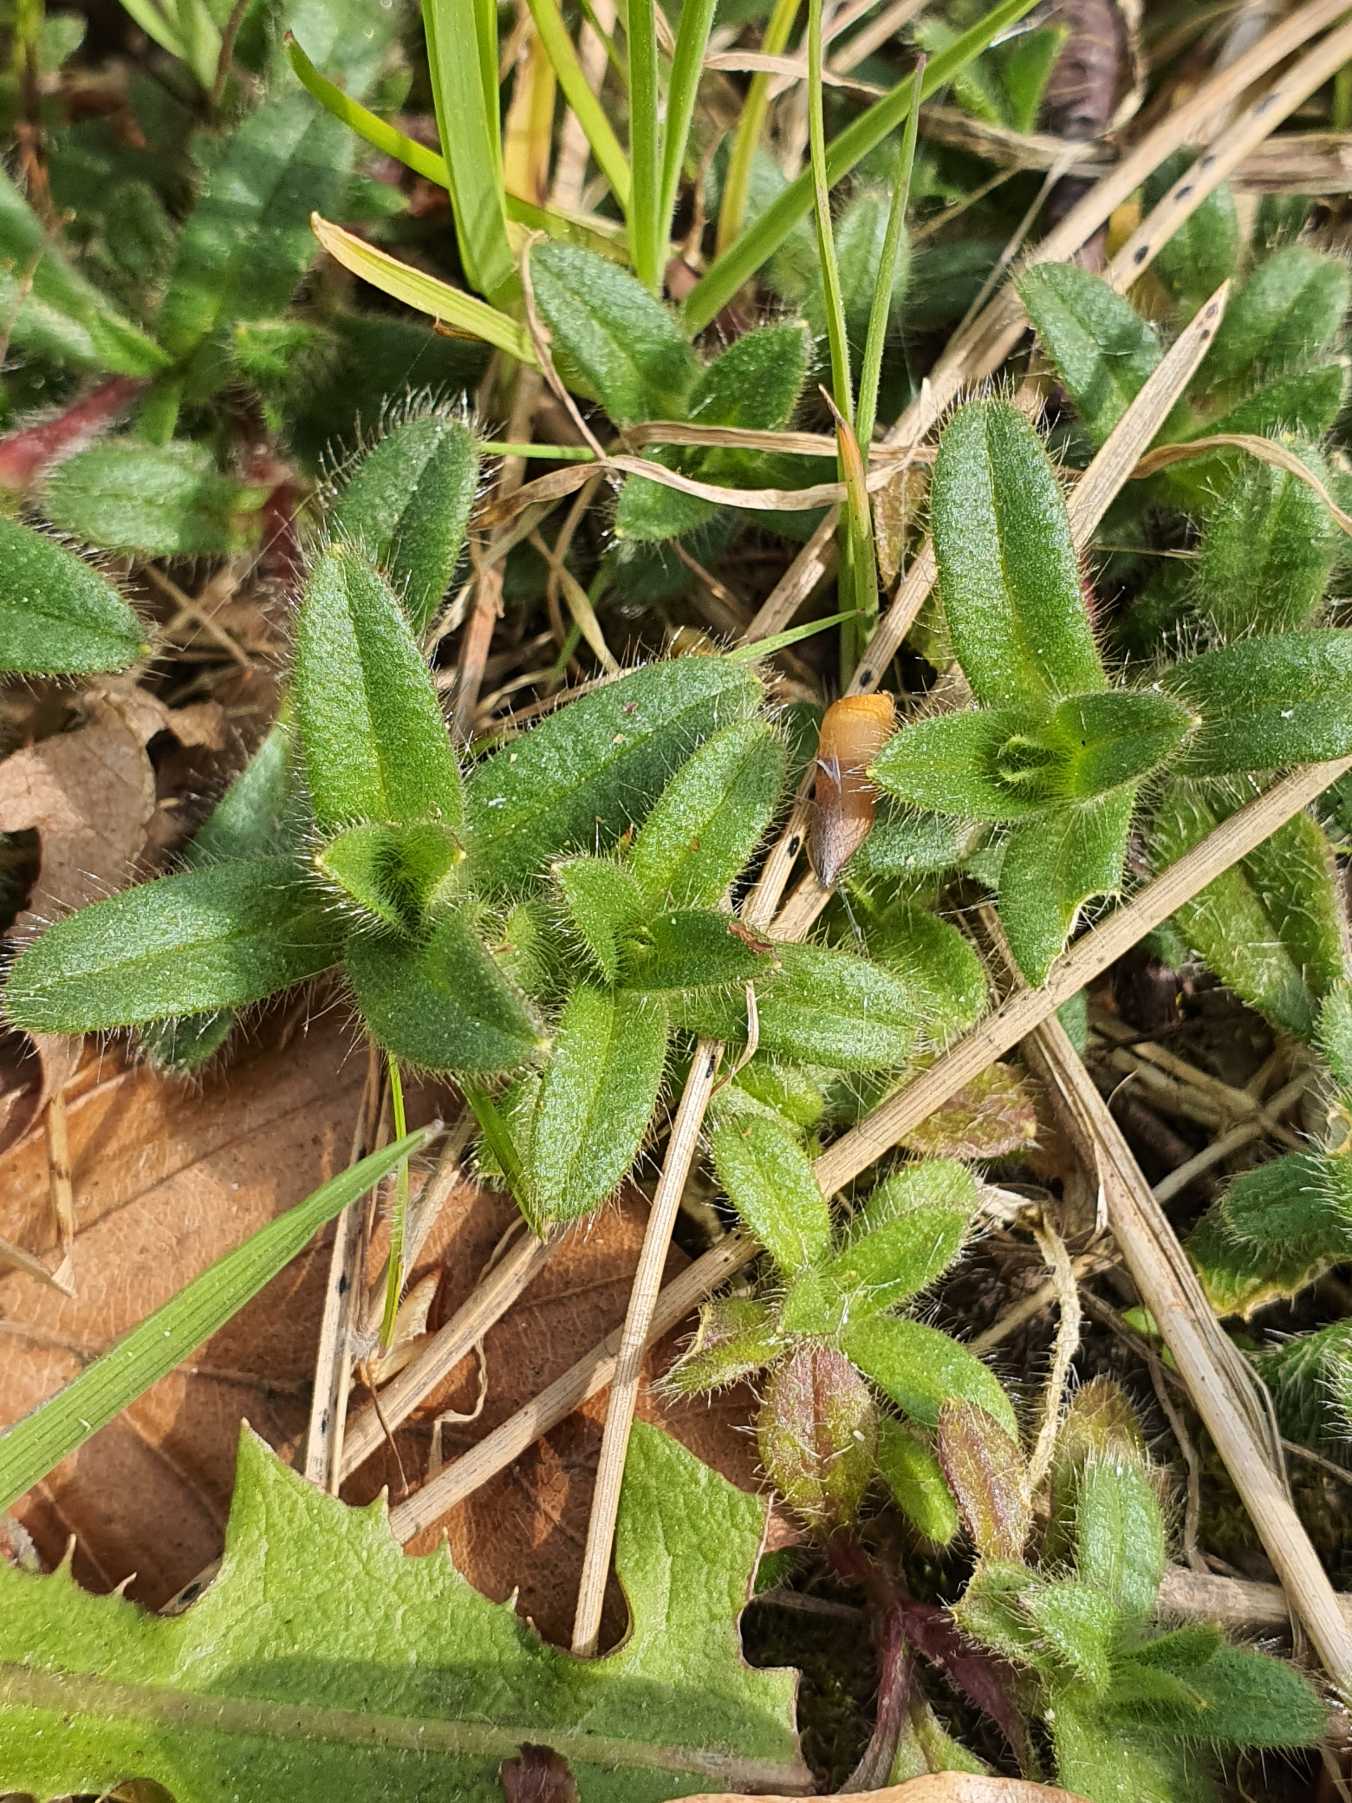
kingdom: Plantae
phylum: Tracheophyta
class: Magnoliopsida
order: Caryophyllales
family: Caryophyllaceae
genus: Cerastium
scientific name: Cerastium glomeratum
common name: Opret hønsetarm
